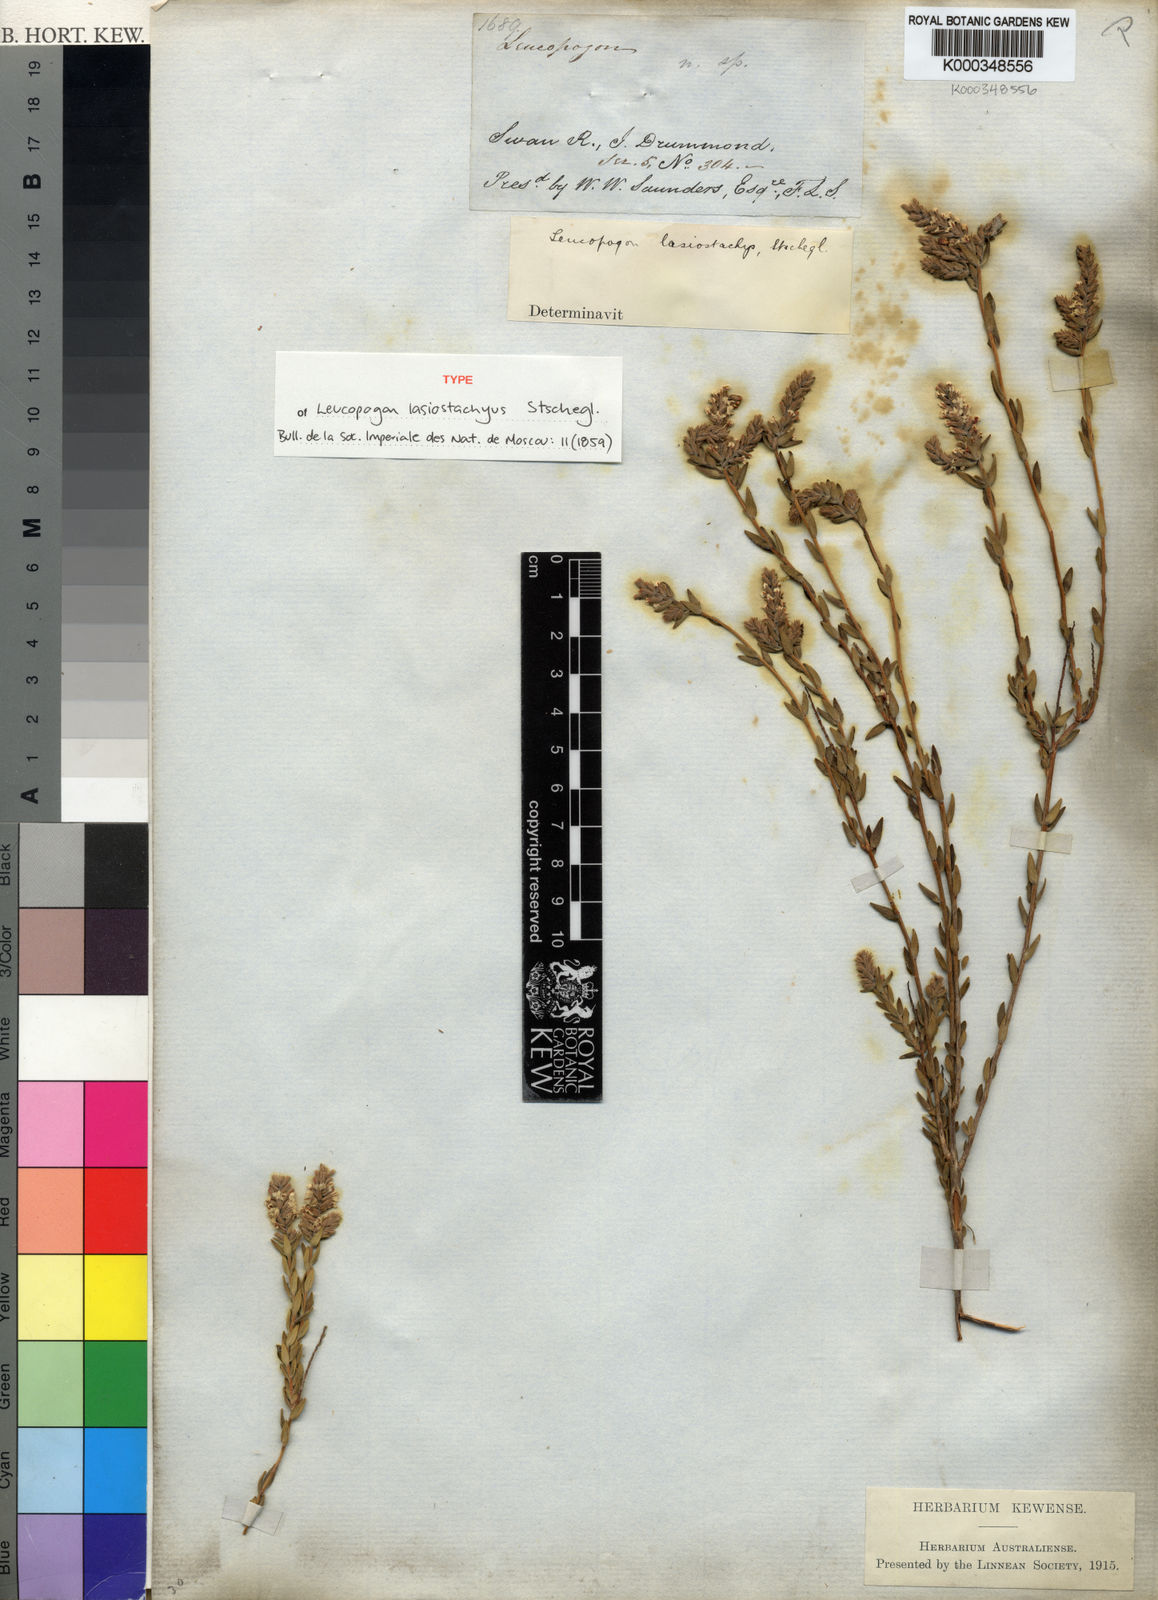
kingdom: Plantae
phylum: Tracheophyta
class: Magnoliopsida
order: Ericales
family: Ericaceae
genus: Leucopogon
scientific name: Leucopogon
